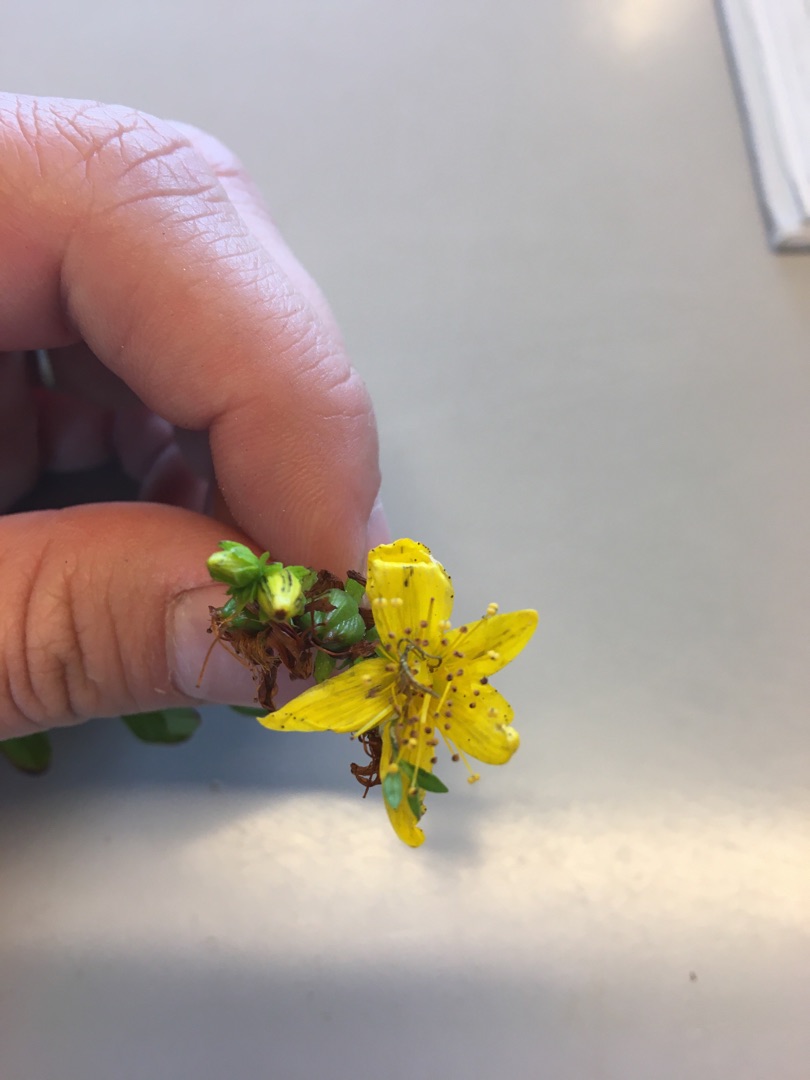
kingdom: Plantae
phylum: Tracheophyta
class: Magnoliopsida
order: Malpighiales
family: Hypericaceae
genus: Hypericum
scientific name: Hypericum perforatum
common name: Prikbladet perikon
